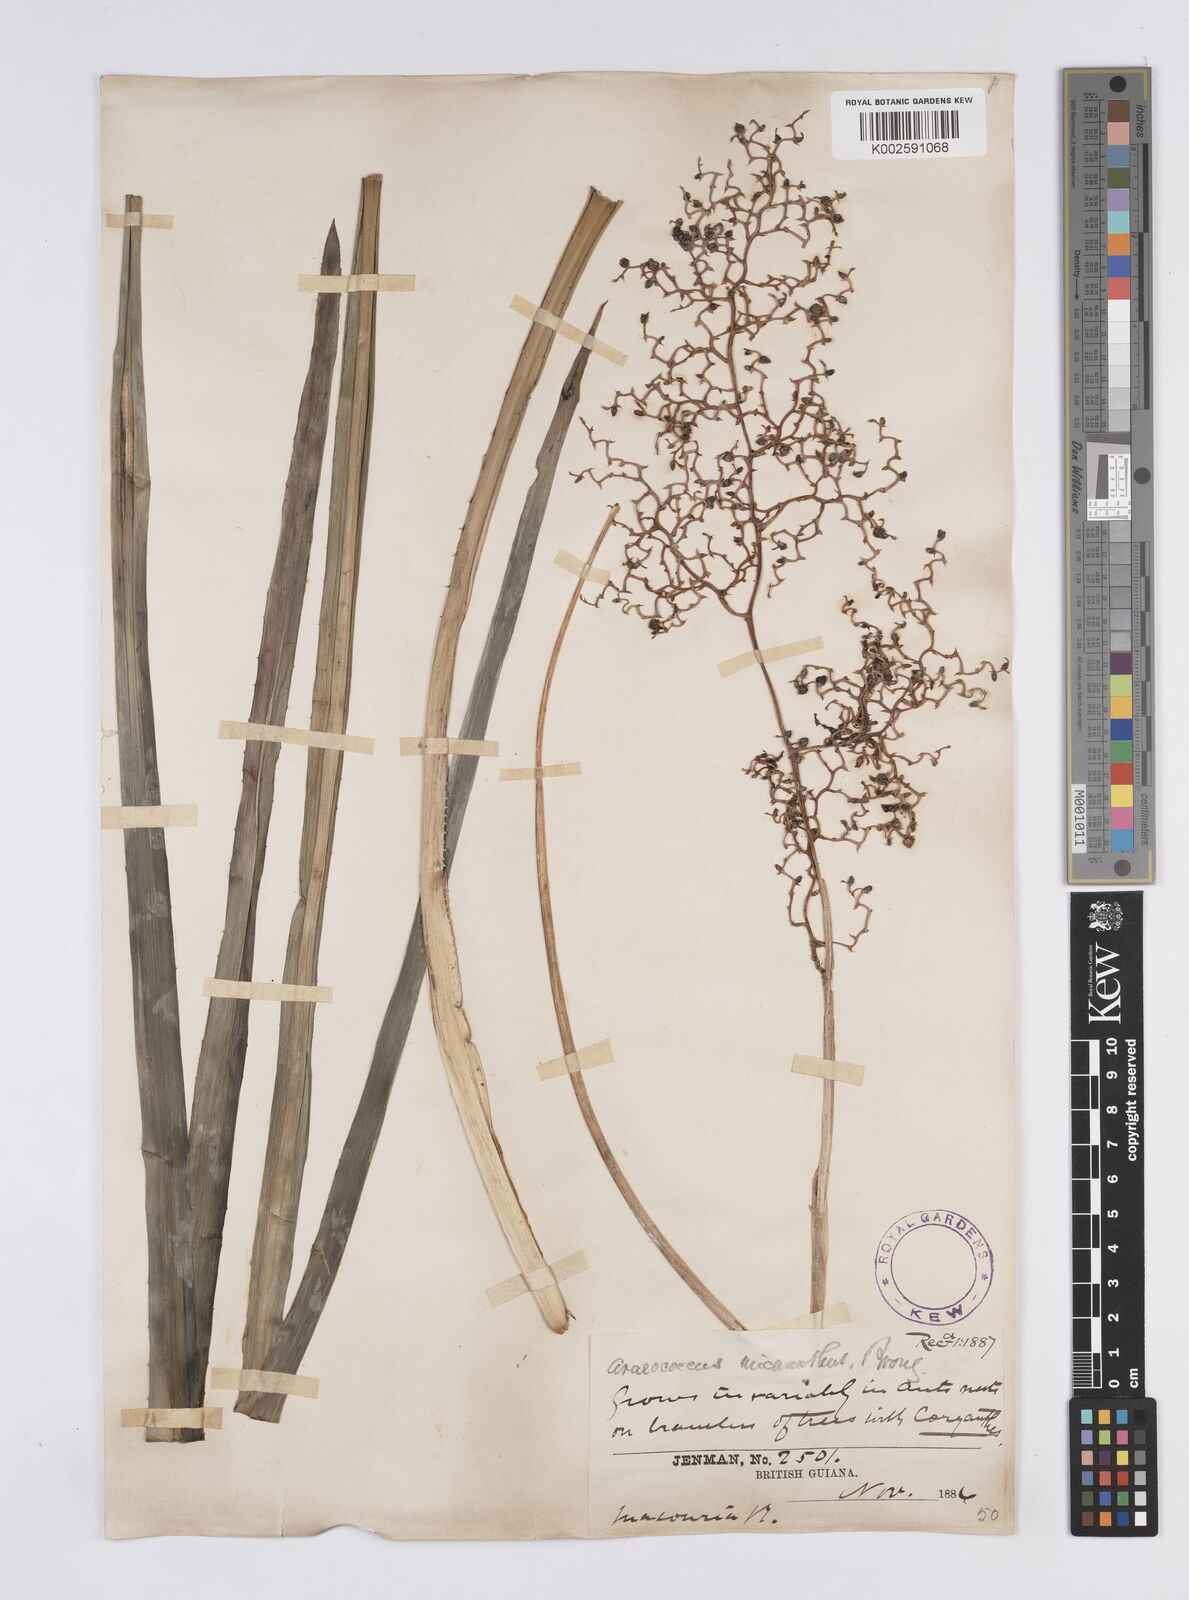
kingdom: Plantae
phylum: Tracheophyta
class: Liliopsida
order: Poales
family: Bromeliaceae
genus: Araeococcus
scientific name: Araeococcus micranthus
